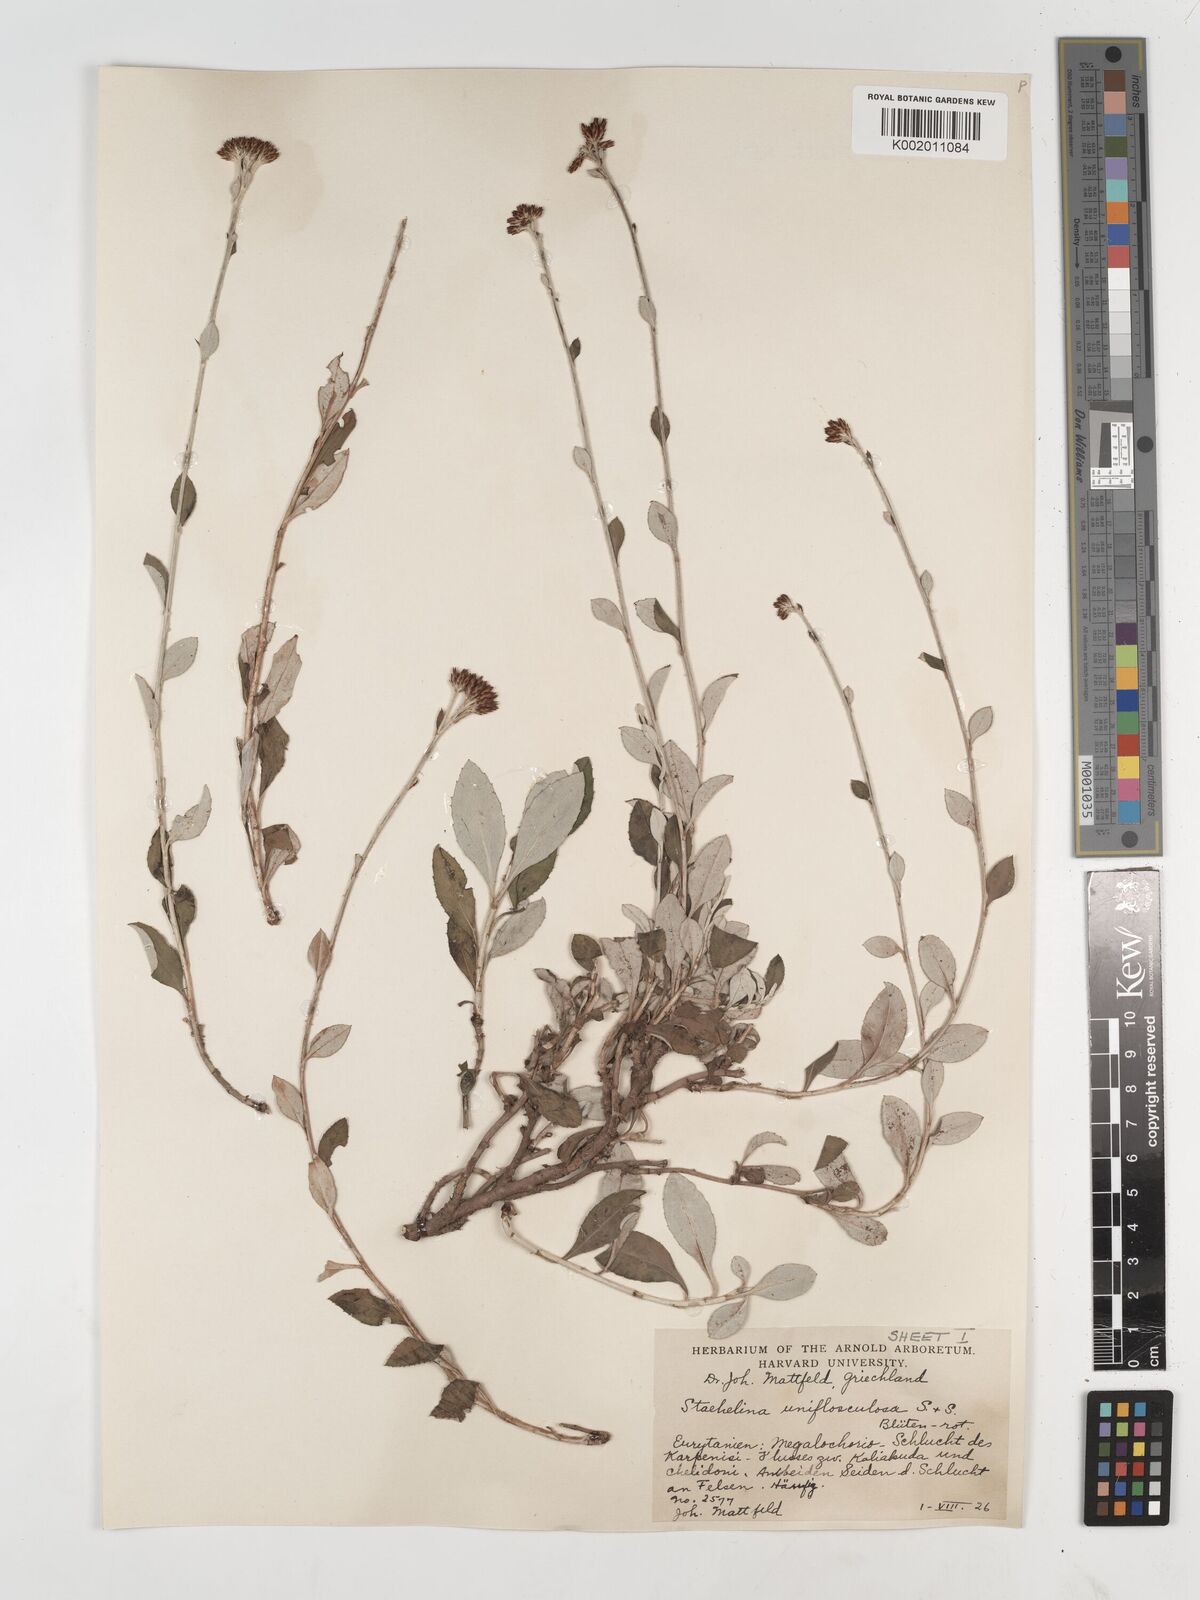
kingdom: Plantae
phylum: Tracheophyta
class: Magnoliopsida
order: Asterales
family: Asteraceae
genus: Staehelina
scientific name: Staehelina uniflosculosa
